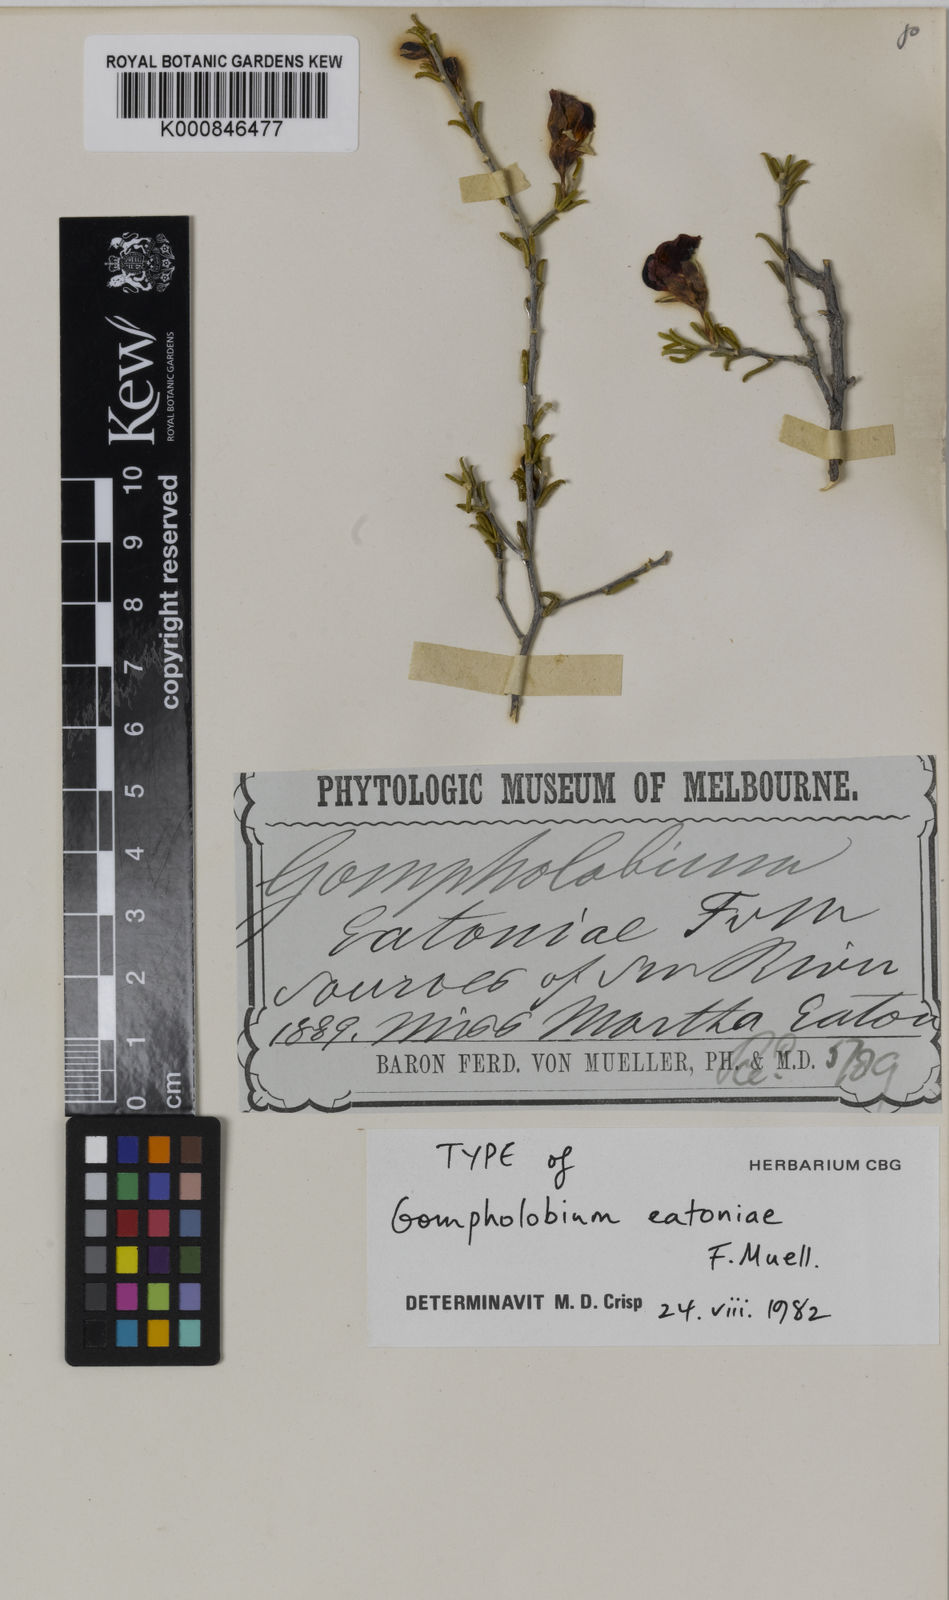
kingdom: Plantae
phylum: Tracheophyta
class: Magnoliopsida
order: Fabales
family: Fabaceae
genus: Gompholobium
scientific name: Gompholobium hendersonii
